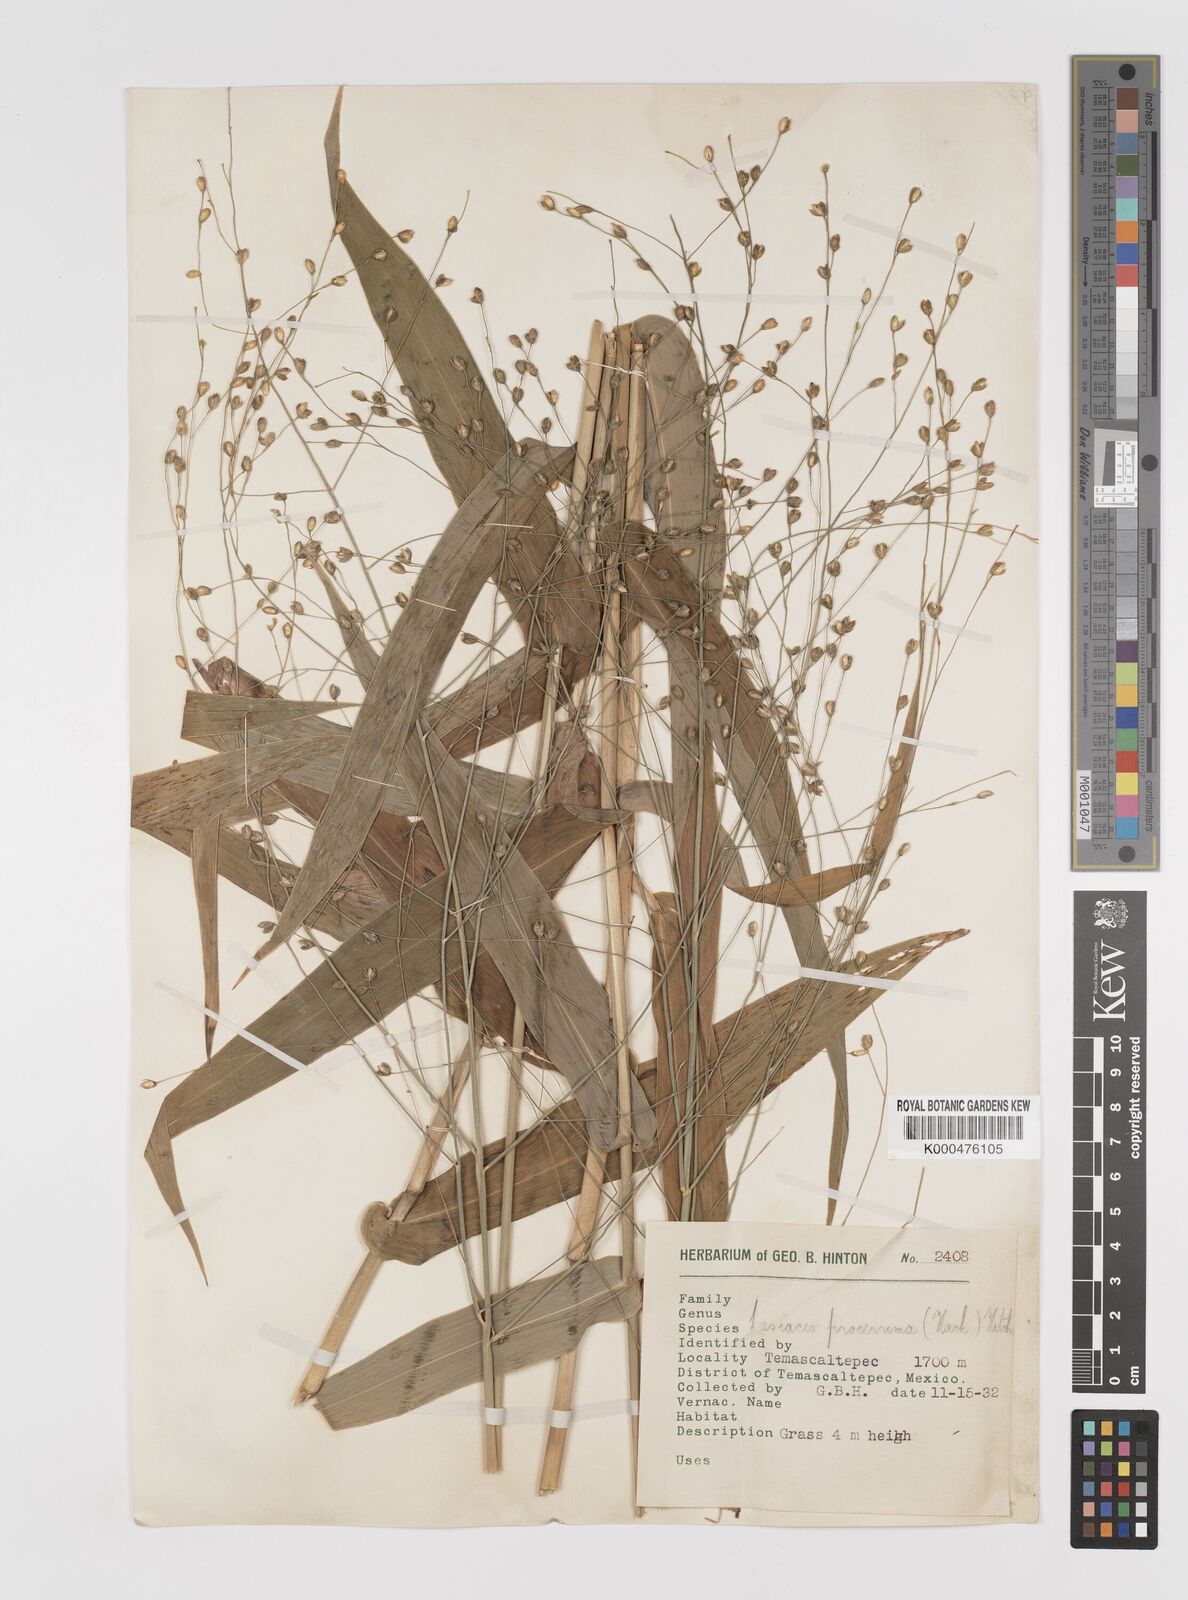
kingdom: Plantae
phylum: Tracheophyta
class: Liliopsida
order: Poales
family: Poaceae
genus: Lasiacis
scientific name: Lasiacis
